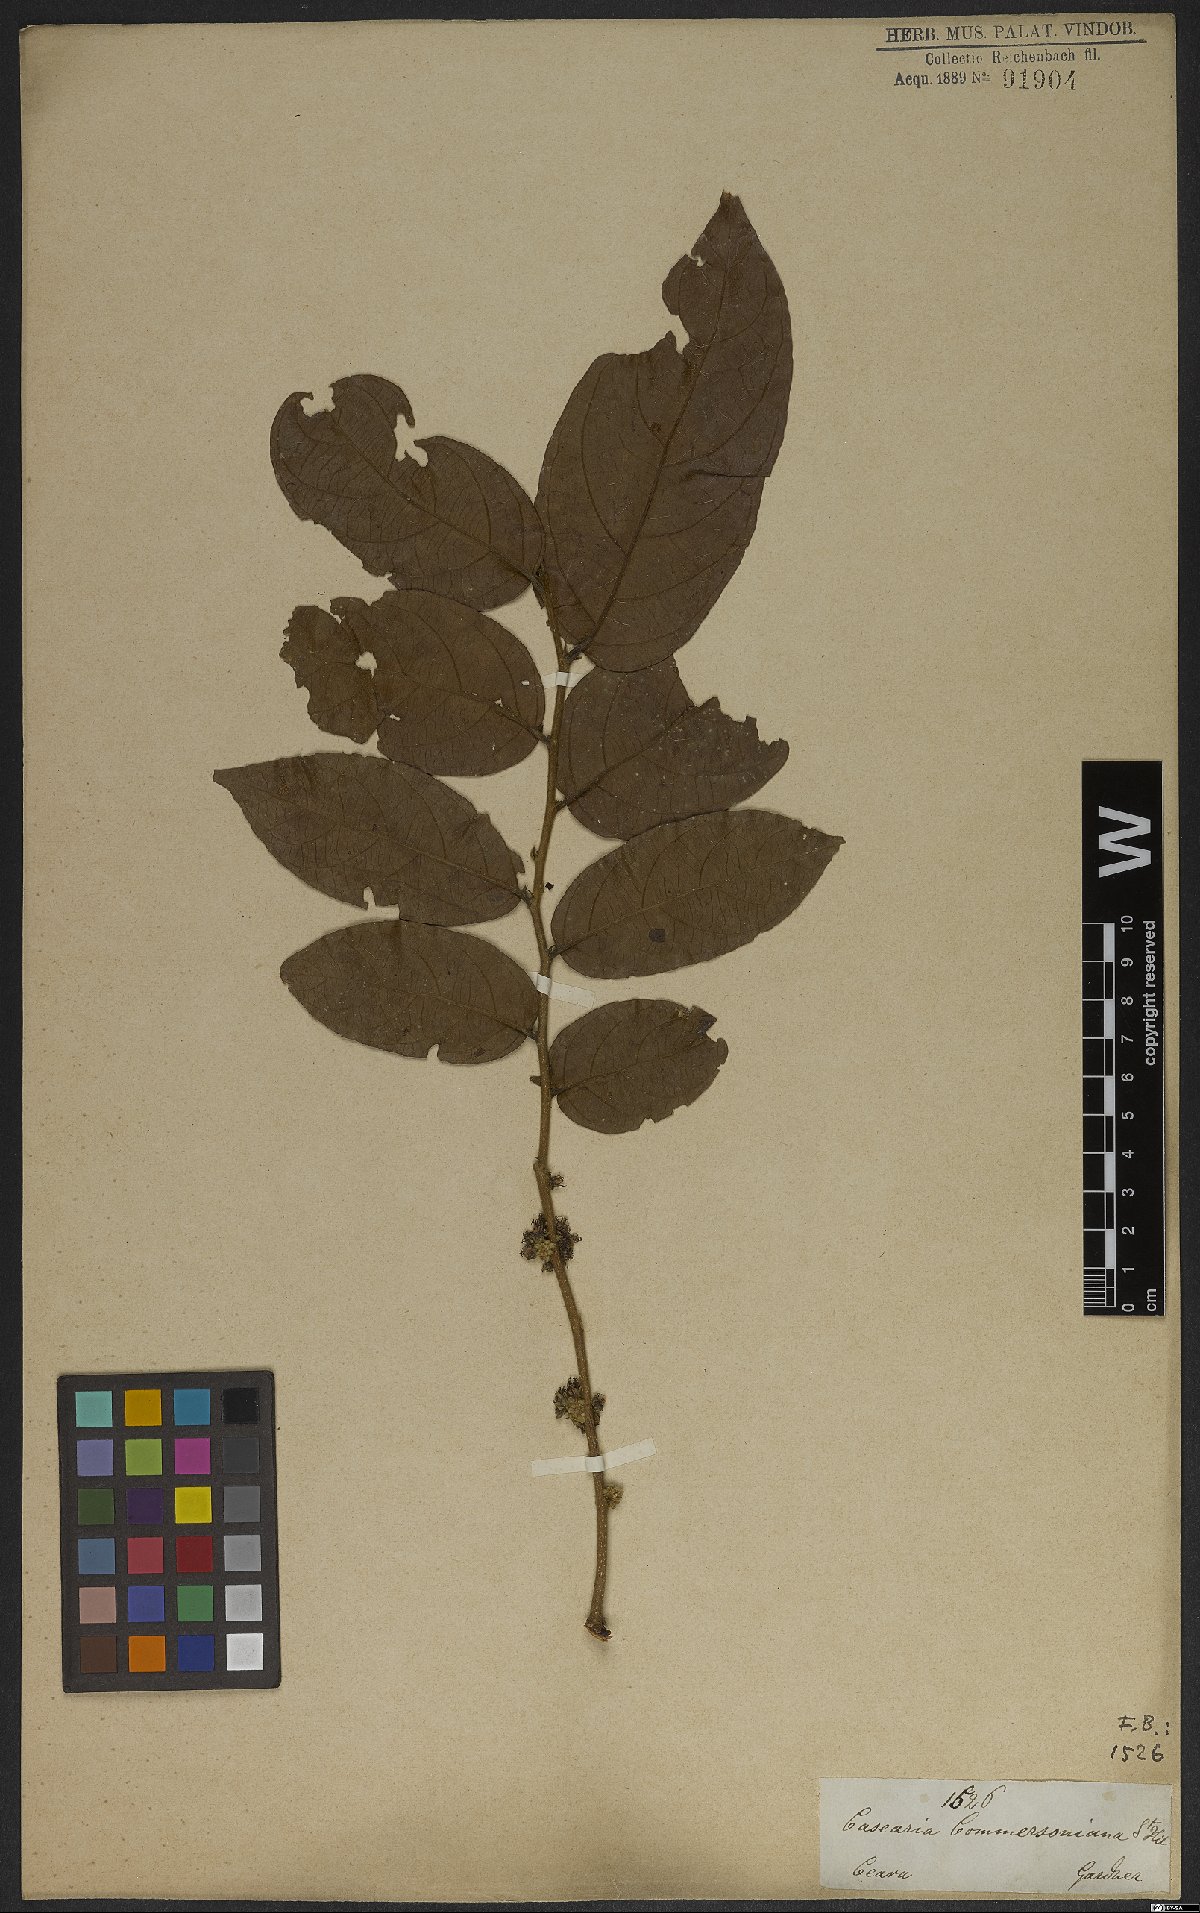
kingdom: Plantae
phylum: Tracheophyta
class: Magnoliopsida
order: Malpighiales
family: Salicaceae
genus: Piparea
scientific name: Piparea dentata
